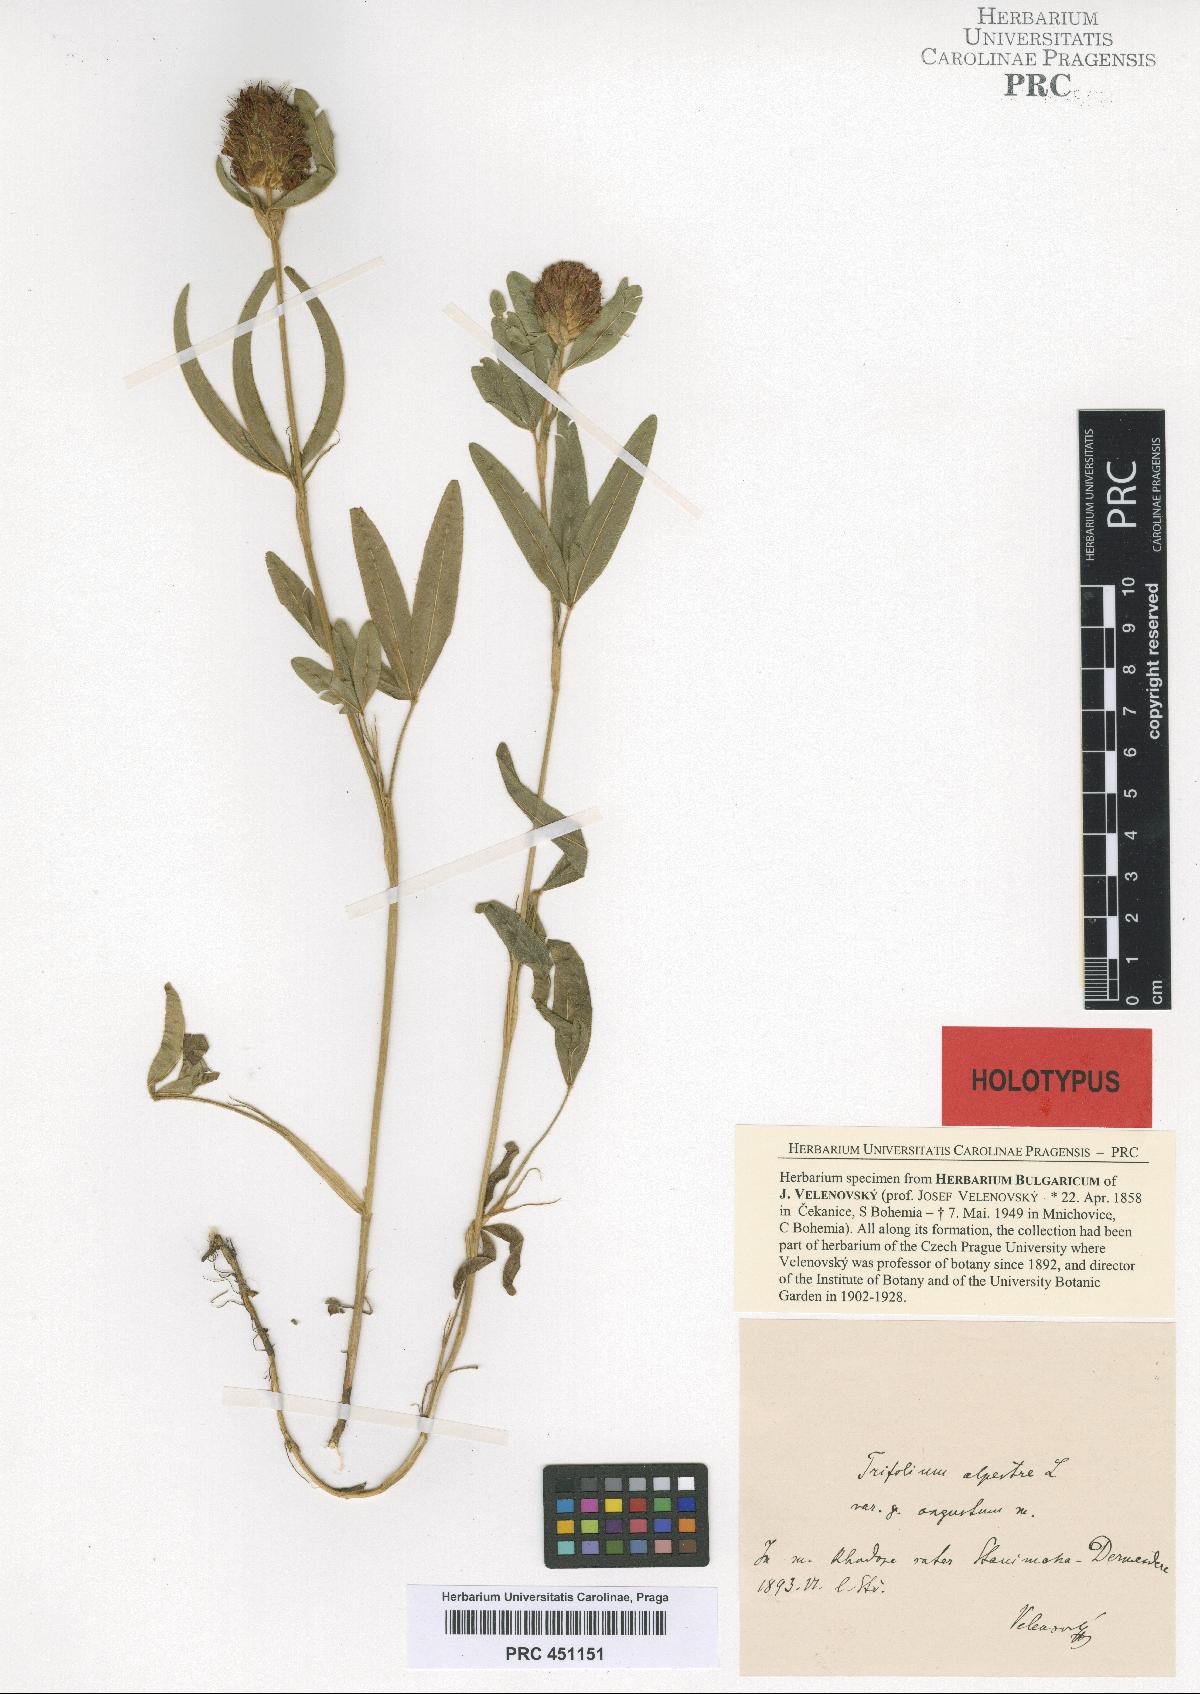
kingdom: Plantae
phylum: Tracheophyta
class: Magnoliopsida
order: Fabales
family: Fabaceae
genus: Trifolium
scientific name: Trifolium alpestre
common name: Owl-head clover
